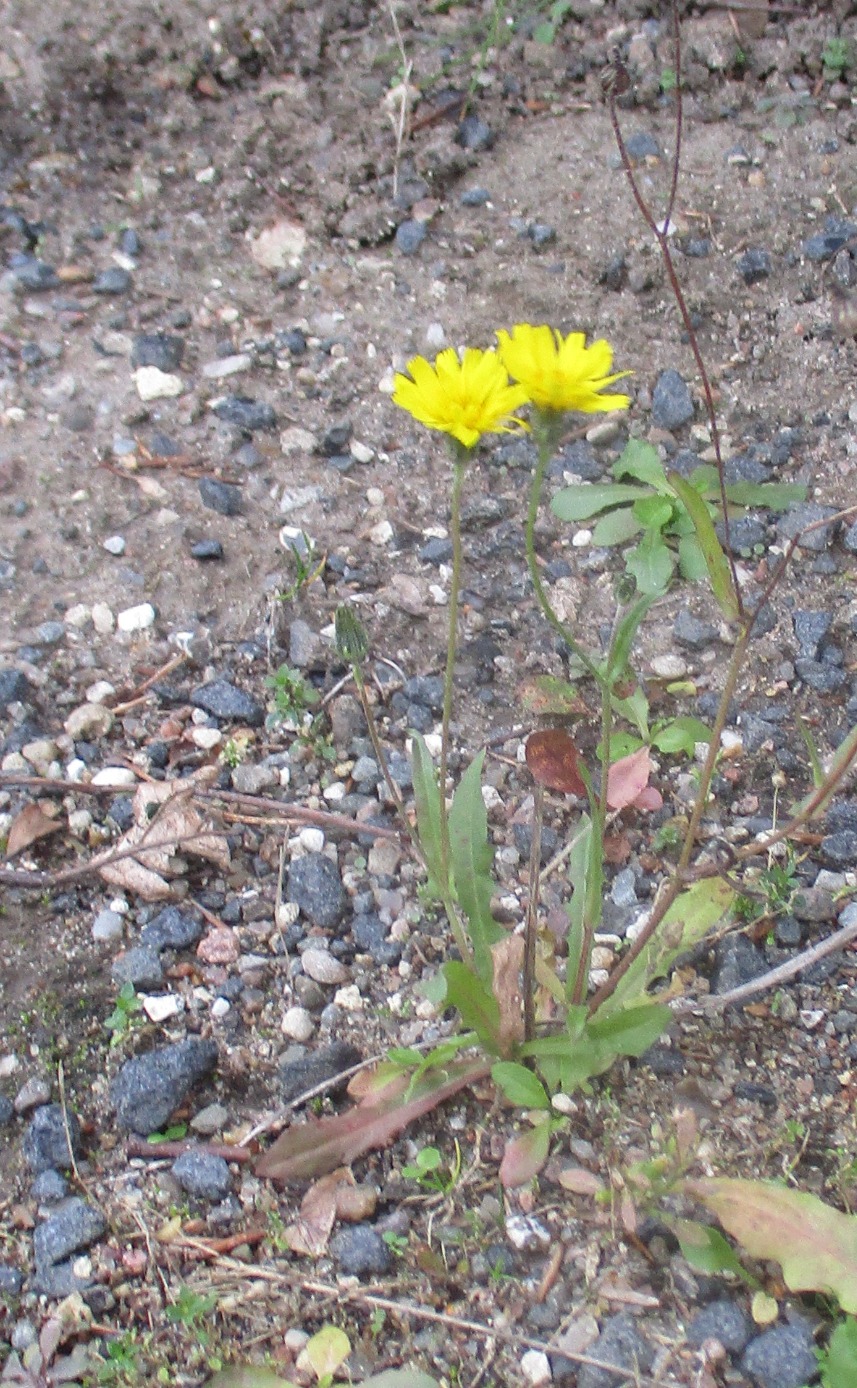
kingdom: Plantae
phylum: Tracheophyta
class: Magnoliopsida
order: Asterales
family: Asteraceae
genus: Crepis
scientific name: Crepis capillaris
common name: Grøn høgeskæg
